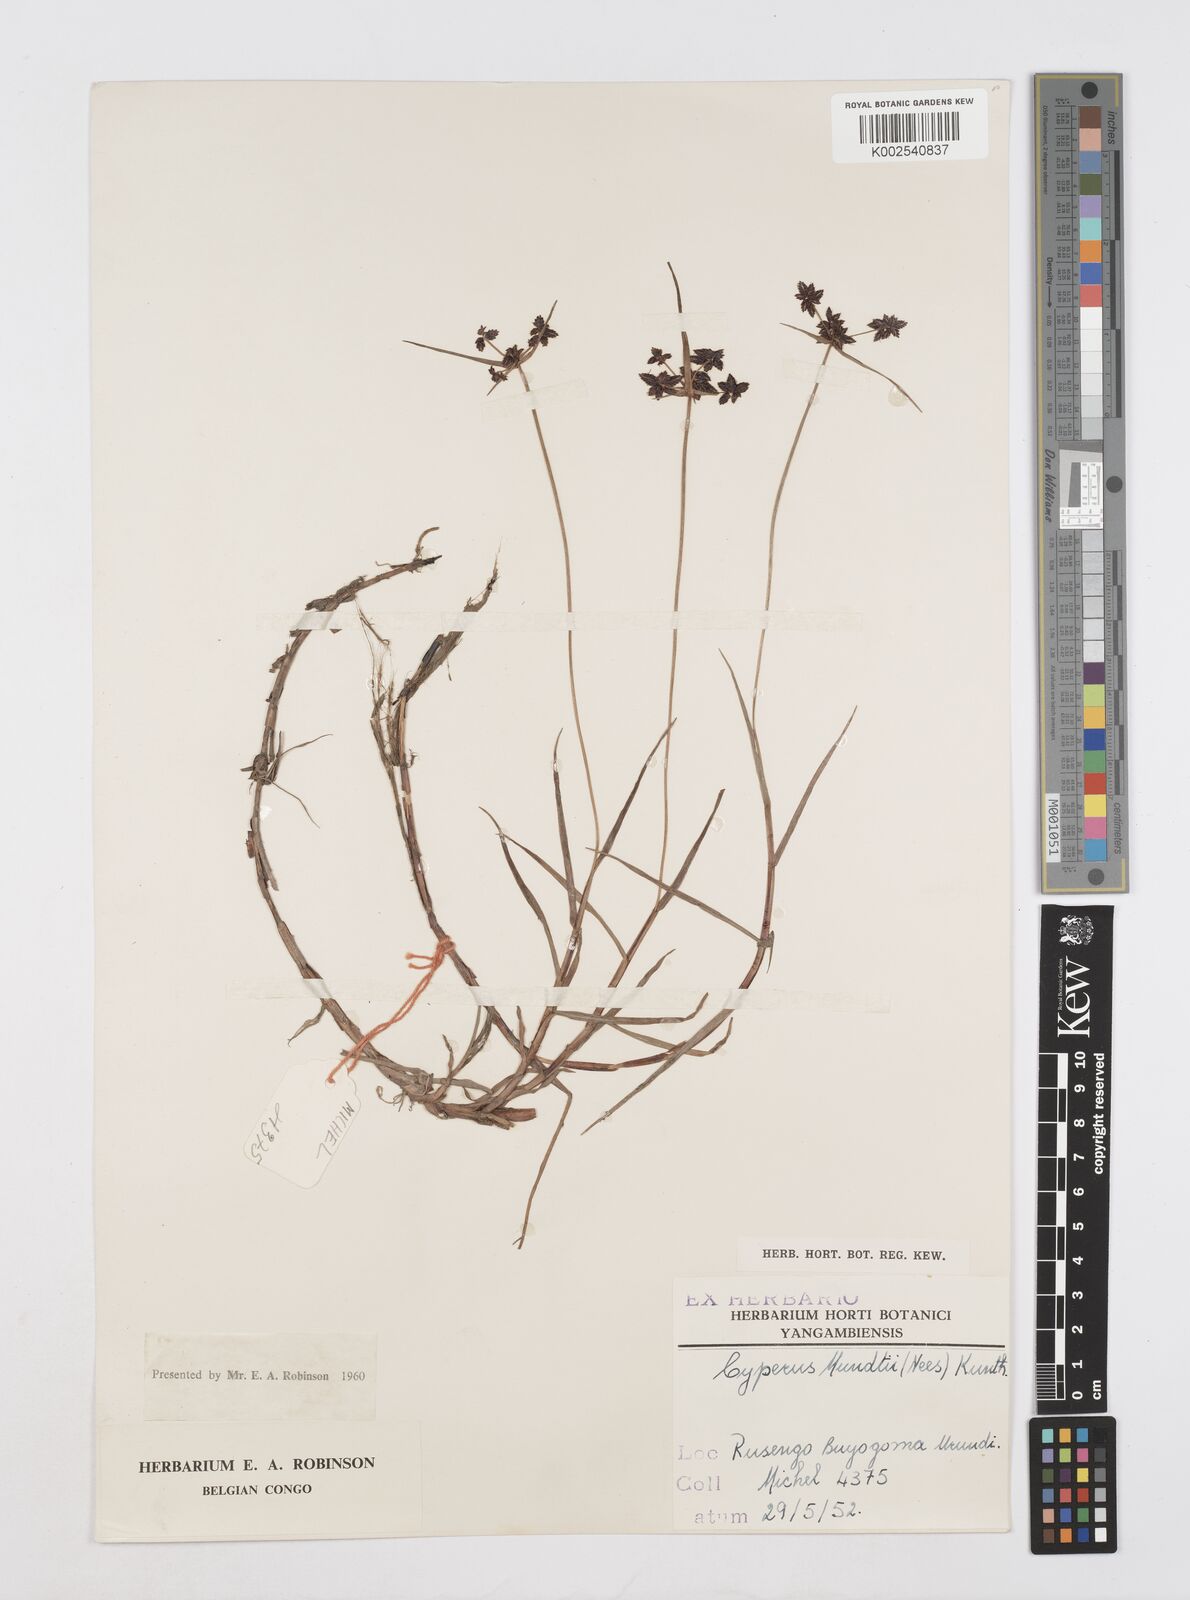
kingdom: Plantae
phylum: Tracheophyta
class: Liliopsida
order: Poales
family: Cyperaceae
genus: Cyperus
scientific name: Cyperus mundii
